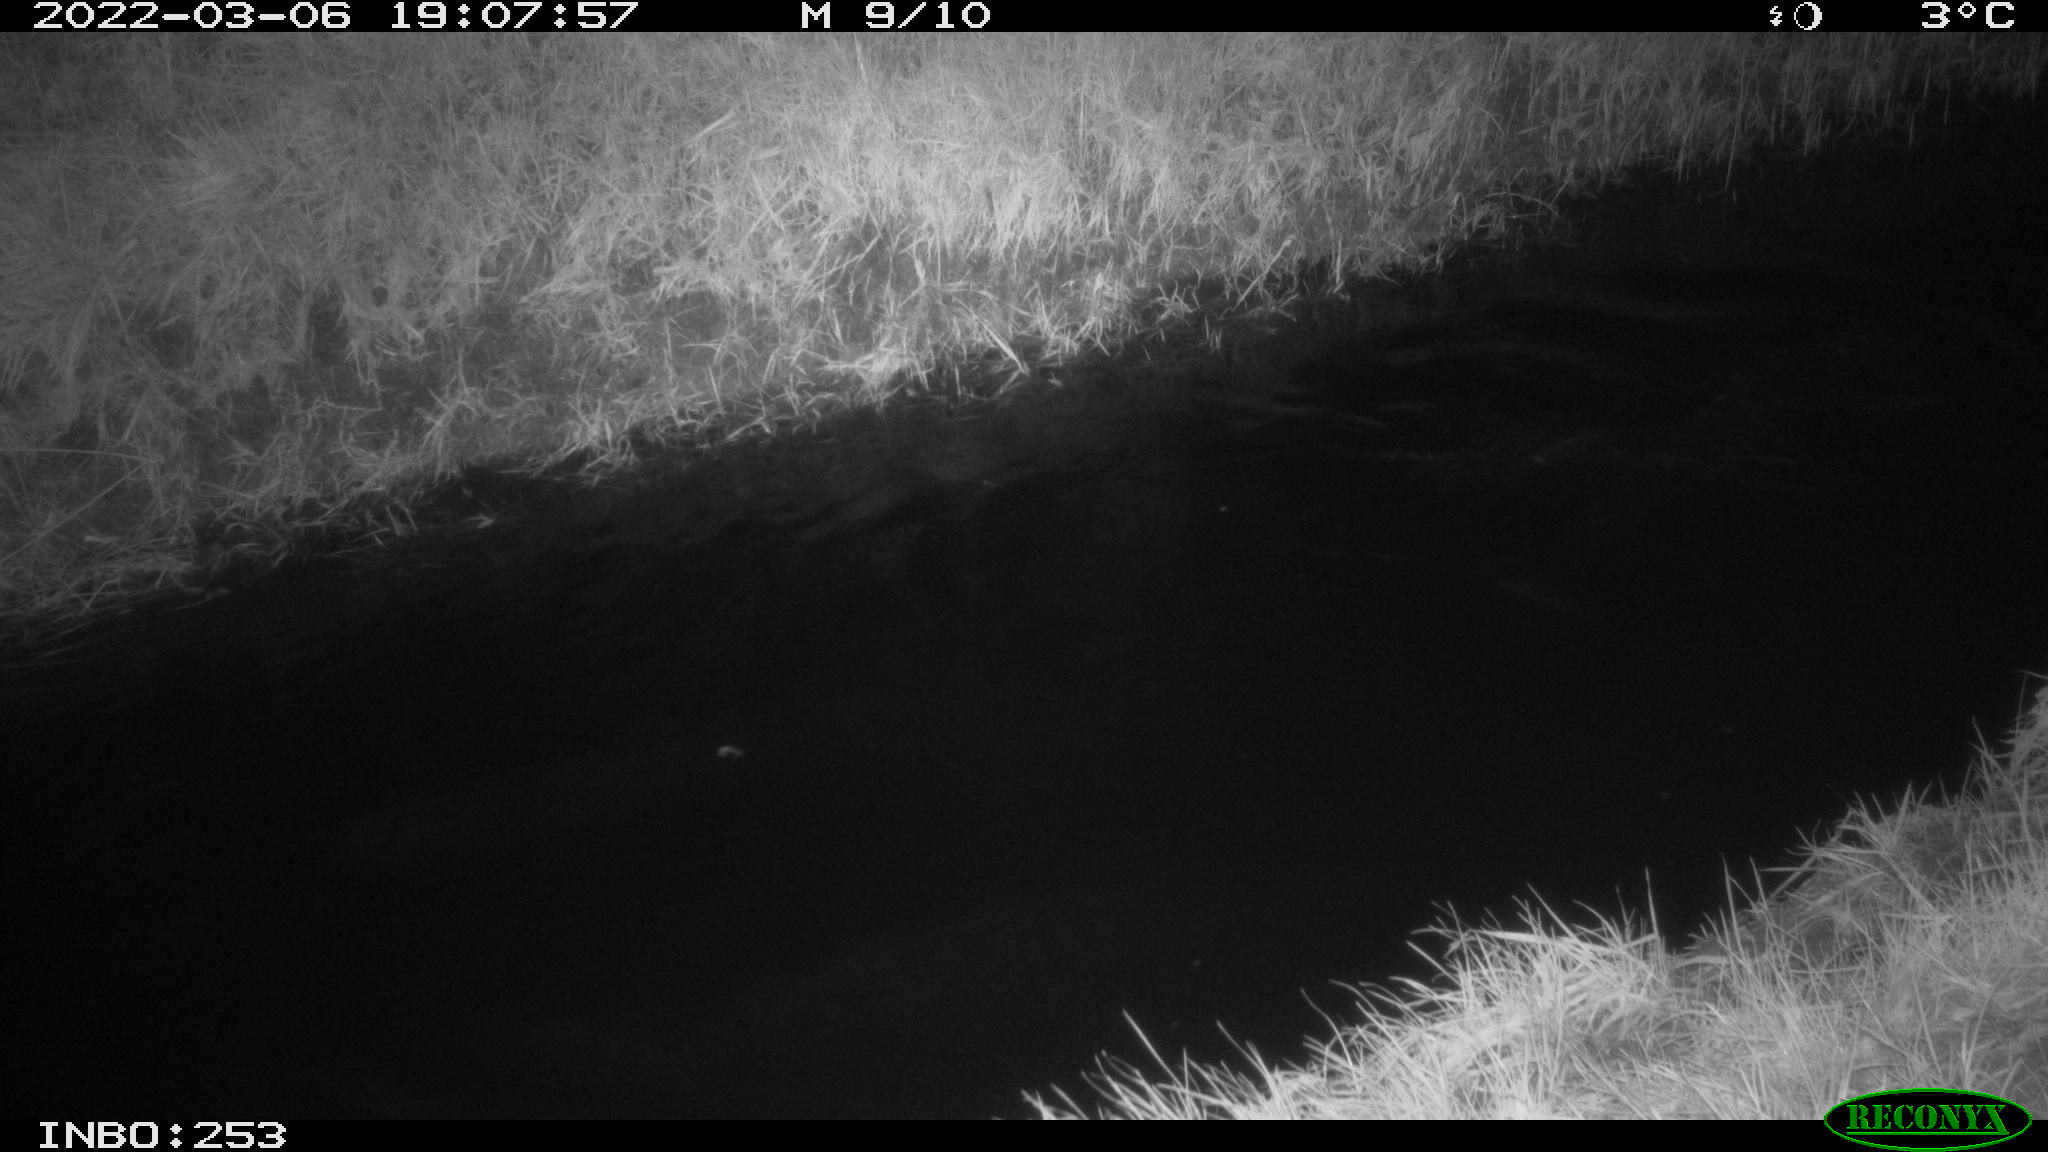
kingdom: Animalia
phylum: Chordata
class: Aves
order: Anseriformes
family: Anatidae
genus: Anas
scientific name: Anas platyrhynchos
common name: Mallard
